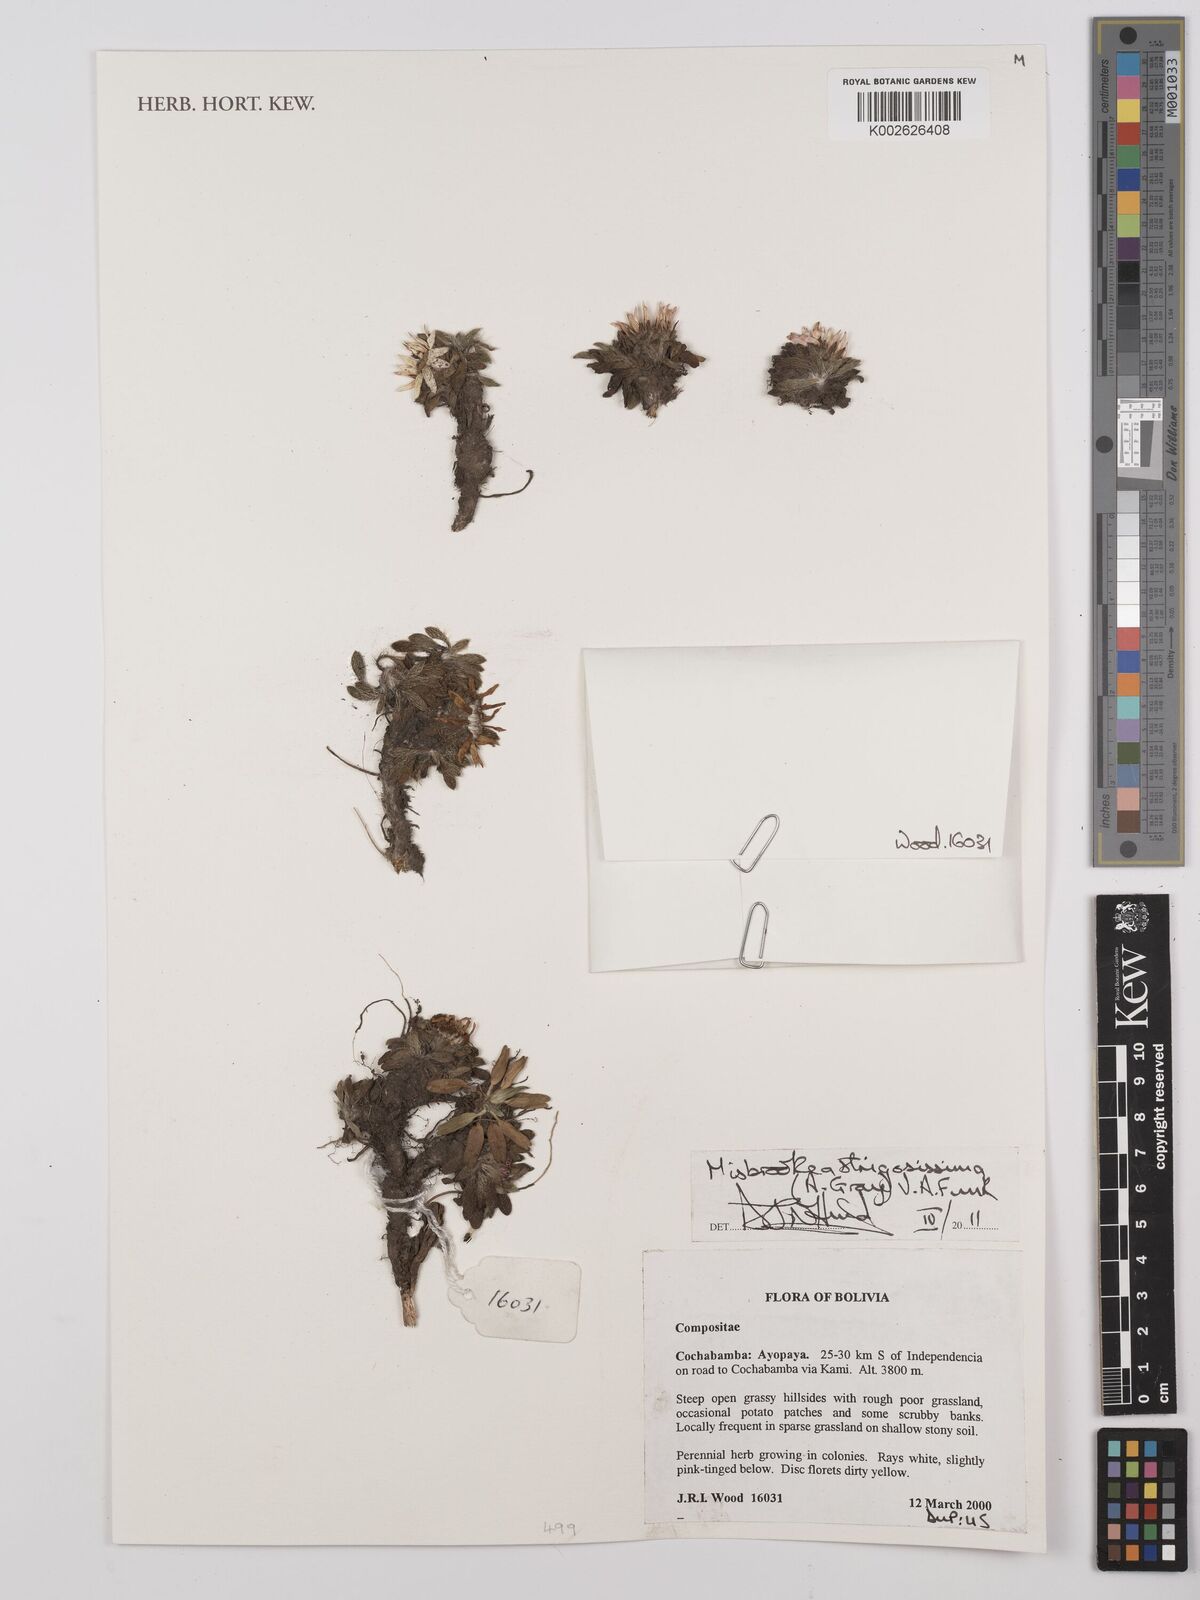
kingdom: Plantae
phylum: Tracheophyta
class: Magnoliopsida
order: Asterales
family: Asteraceae
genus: Misbrookea
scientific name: Misbrookea strigosissima
